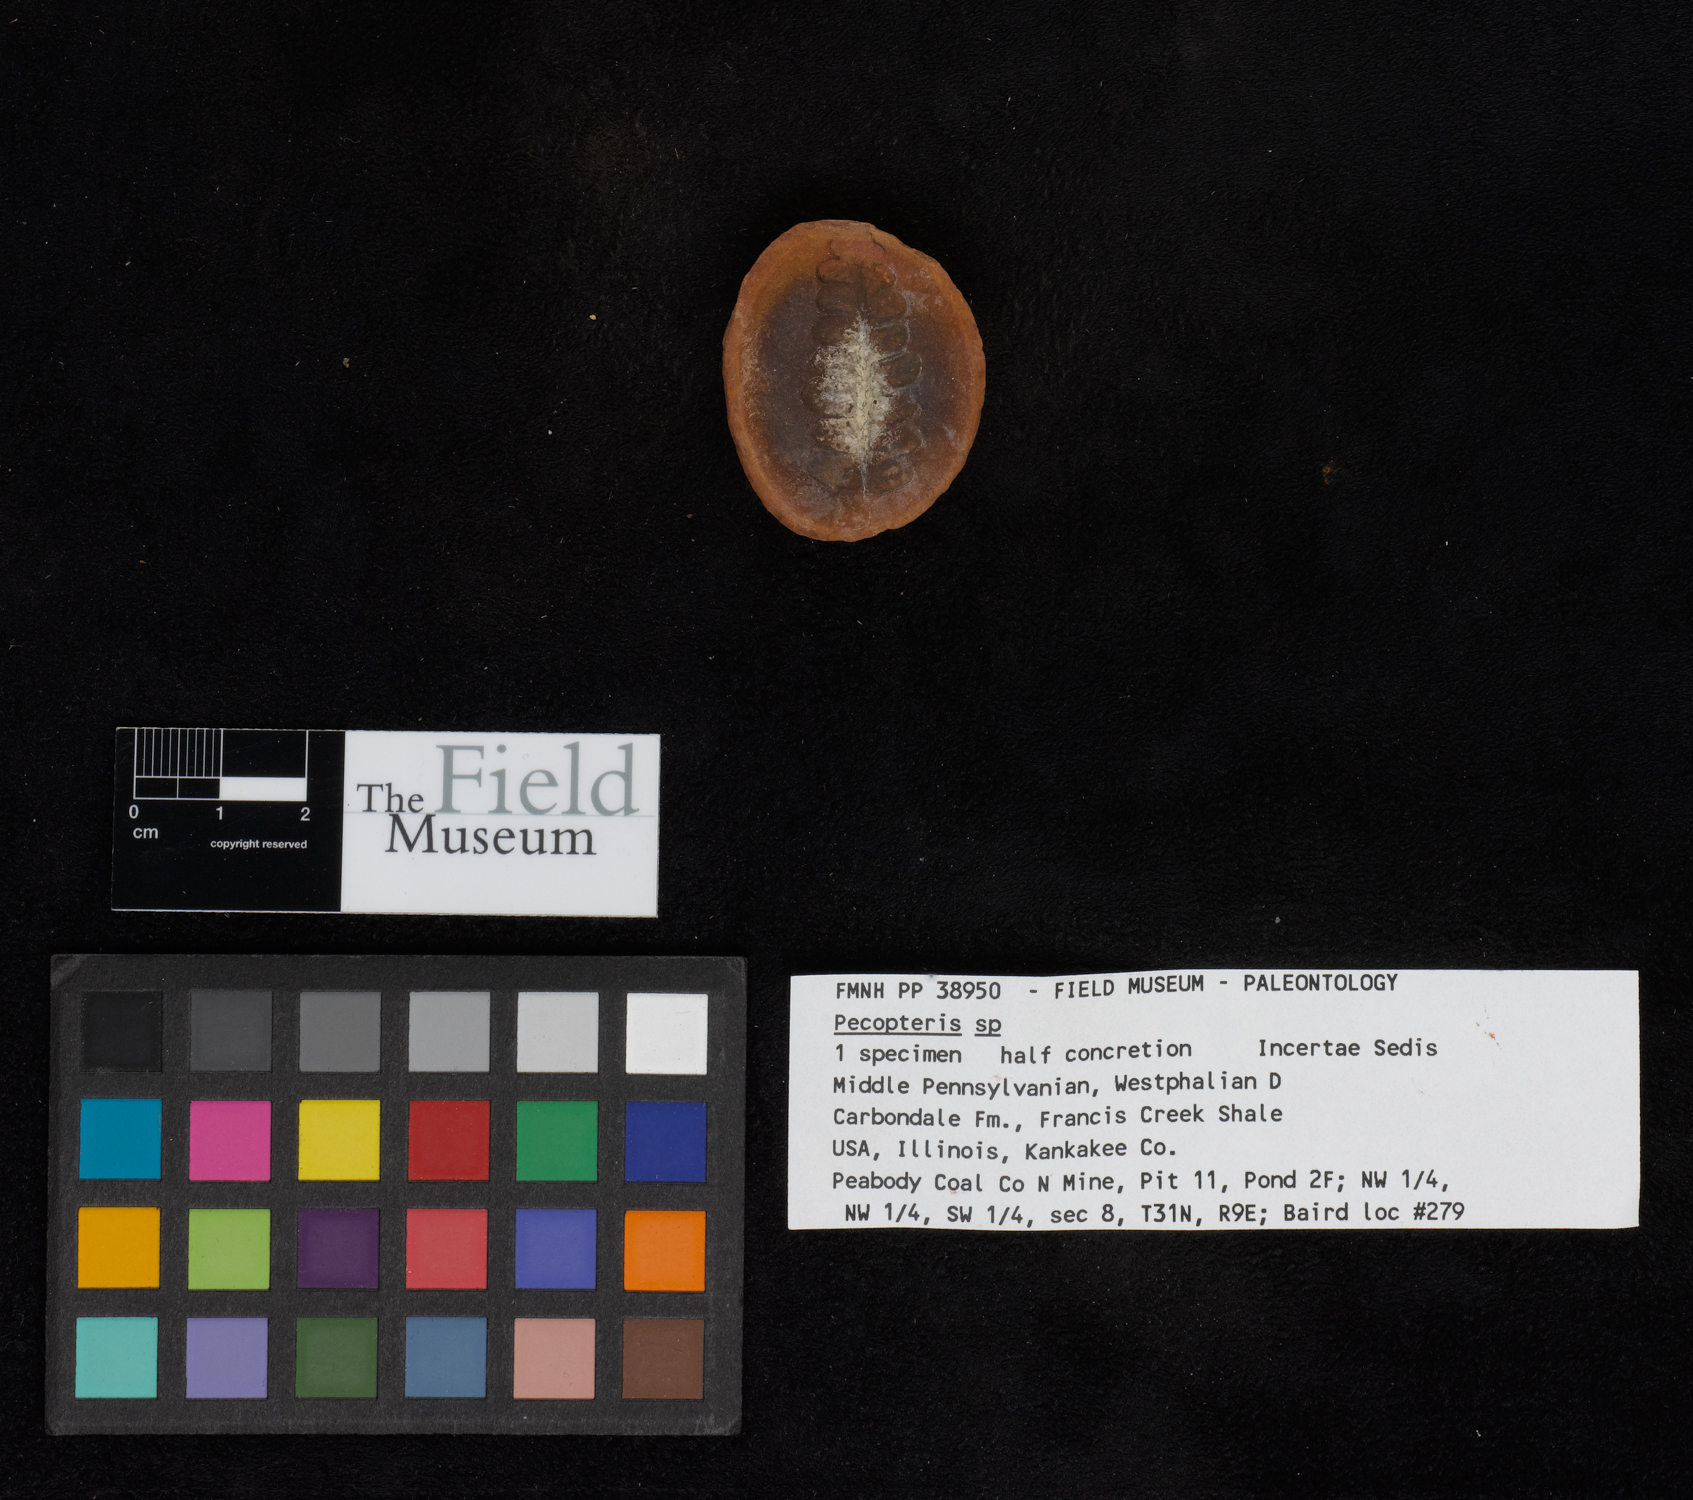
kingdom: Plantae
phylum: Tracheophyta
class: Polypodiopsida
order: Marattiales
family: Asterothecaceae
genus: Pecopteris
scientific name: Pecopteris
